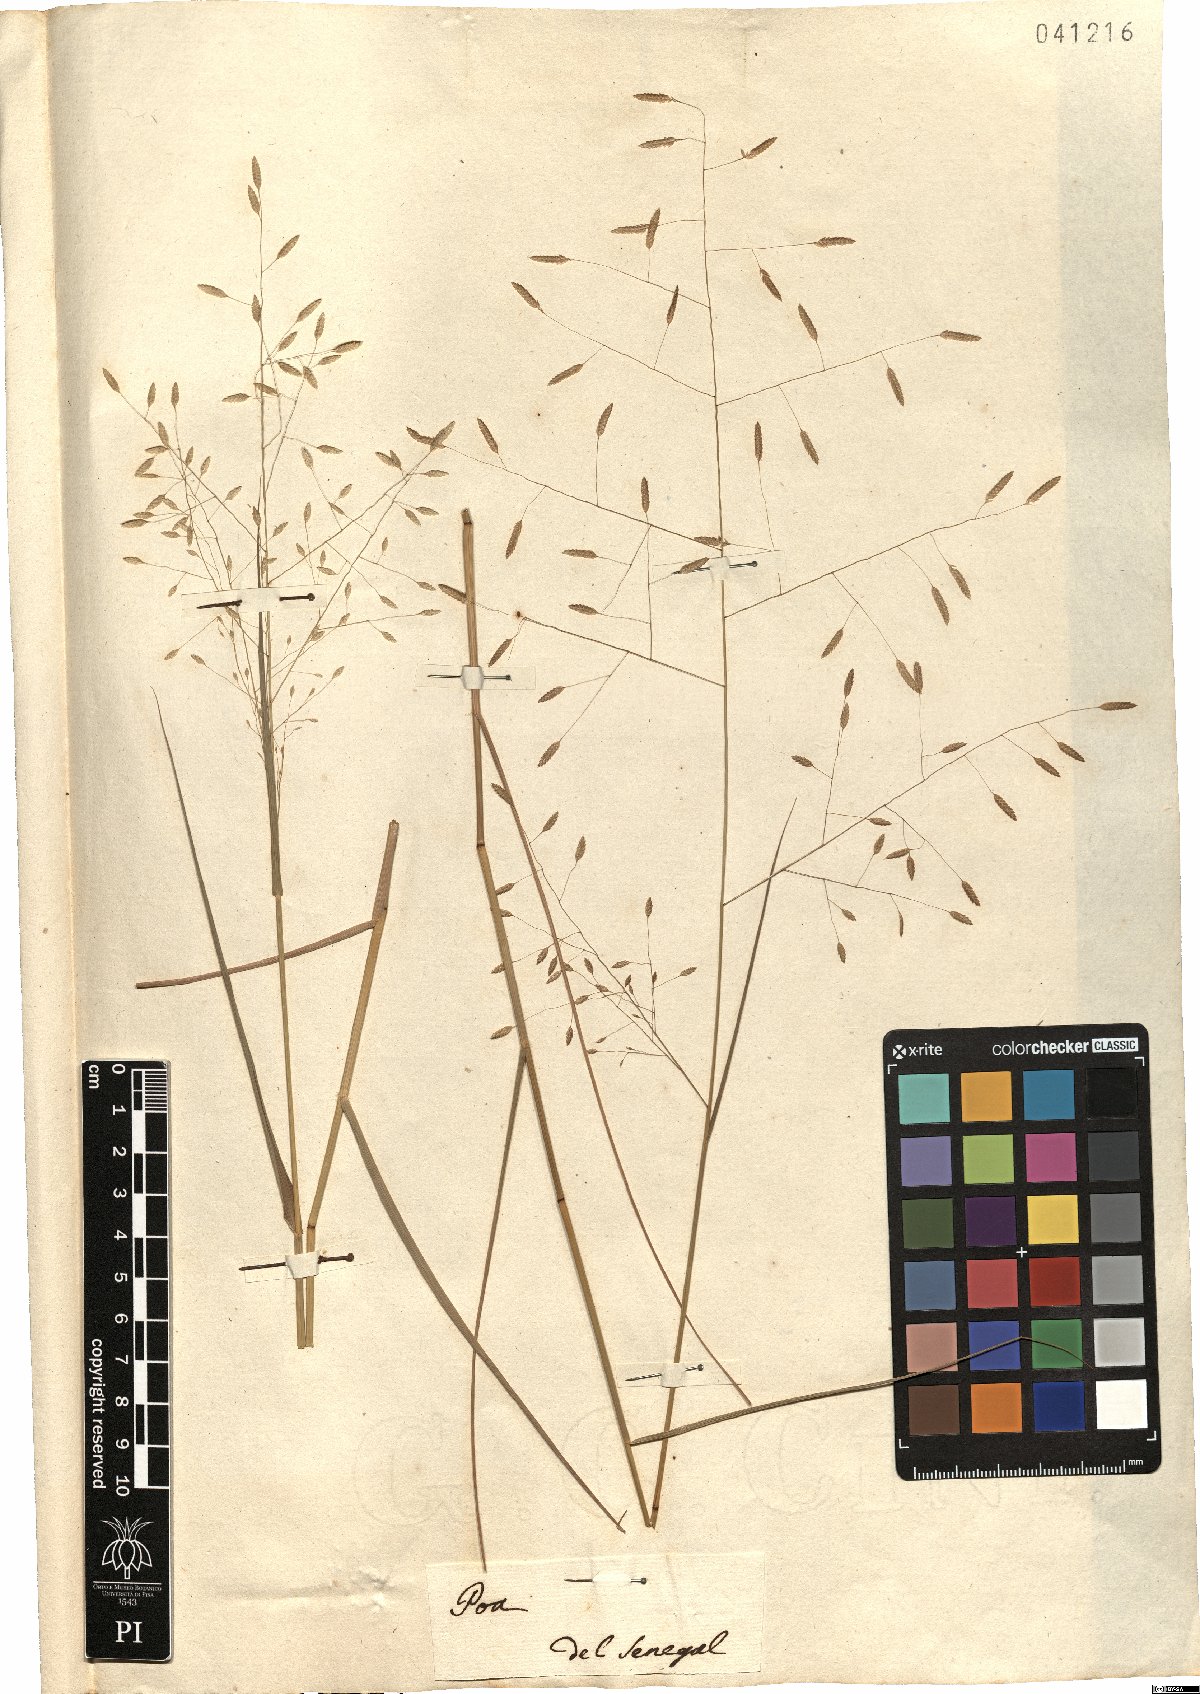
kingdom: Plantae
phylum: Tracheophyta
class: Liliopsida
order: Poales
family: Poaceae
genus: Eragrostis
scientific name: Eragrostis atrovirens
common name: Thalia lovegrass
